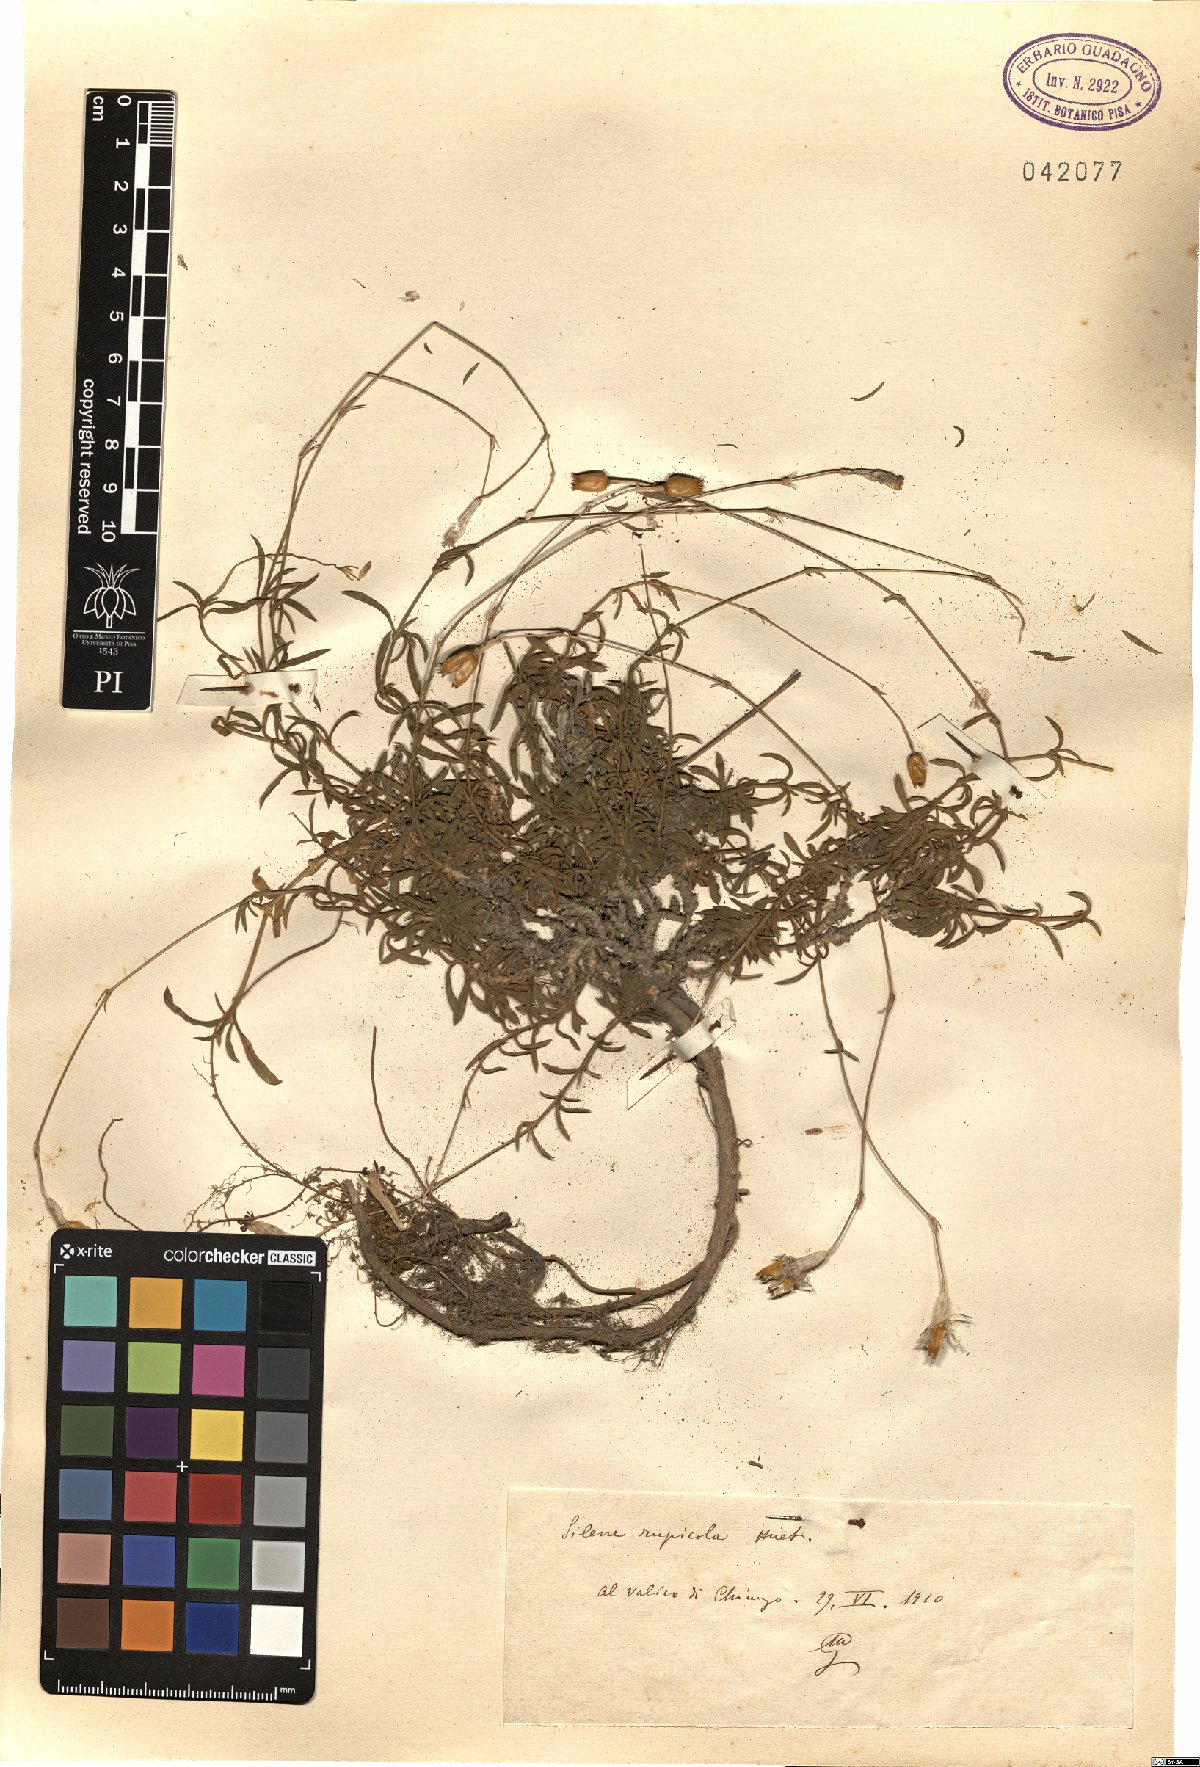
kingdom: Plantae
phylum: Tracheophyta
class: Magnoliopsida
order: Caryophyllales
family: Caryophyllaceae
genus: Silene
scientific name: Silene
